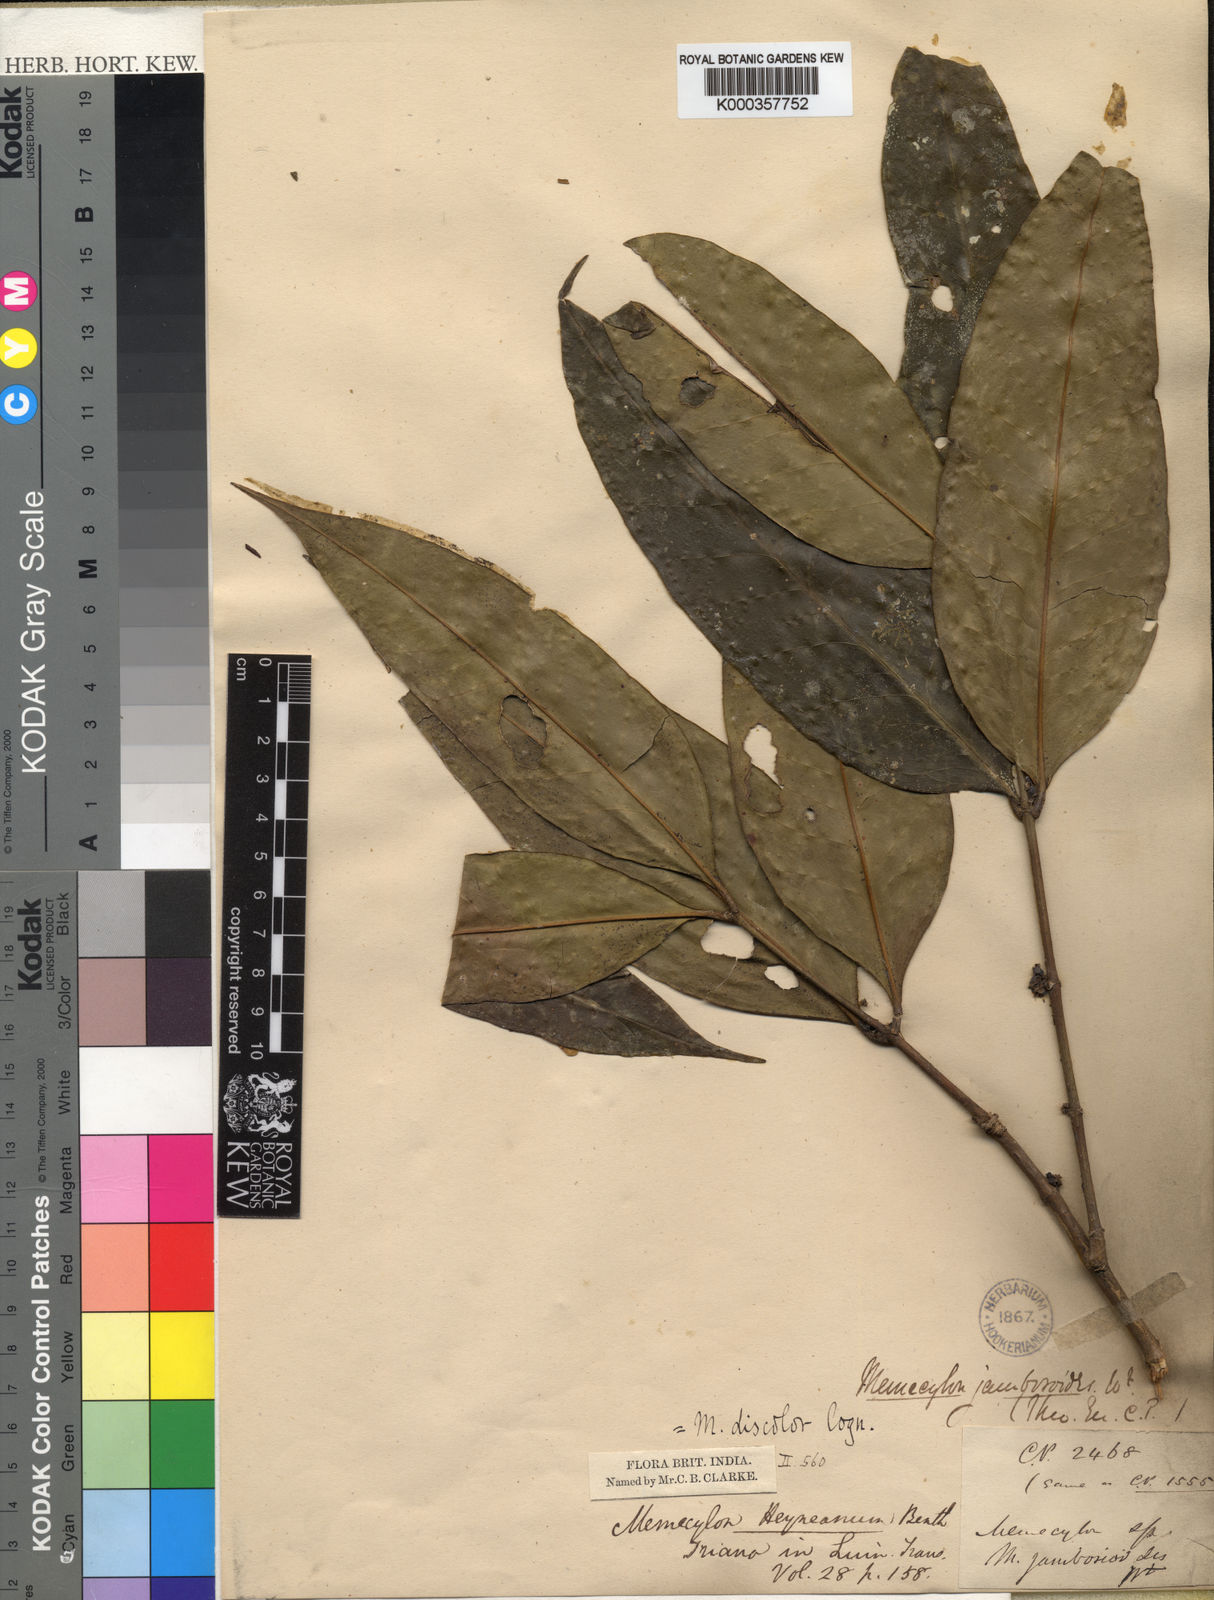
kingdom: Plantae
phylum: Tracheophyta
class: Magnoliopsida
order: Myrtales
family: Melastomataceae
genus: Memecylon
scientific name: Memecylon clarkeanum
